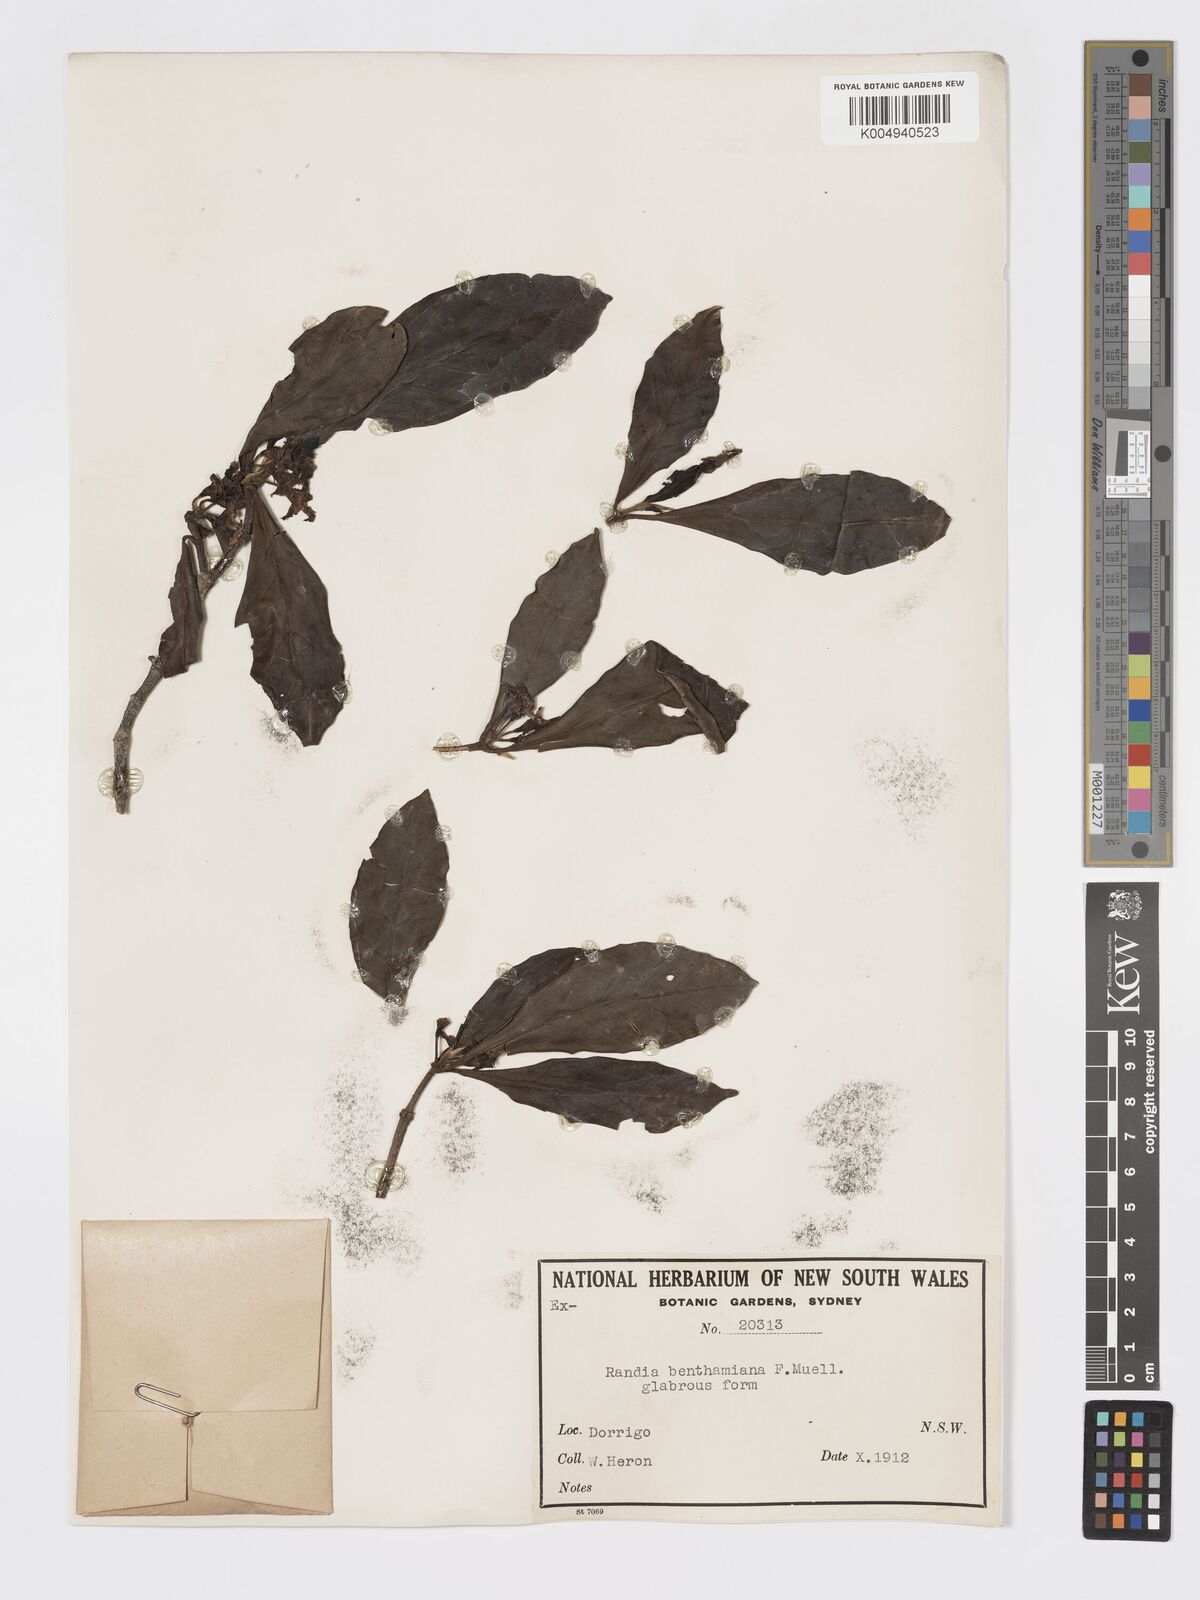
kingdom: Plantae
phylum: Tracheophyta
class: Magnoliopsida
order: Gentianales
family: Rubiaceae
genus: Atractocarpus
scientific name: Atractocarpus benthamianus
